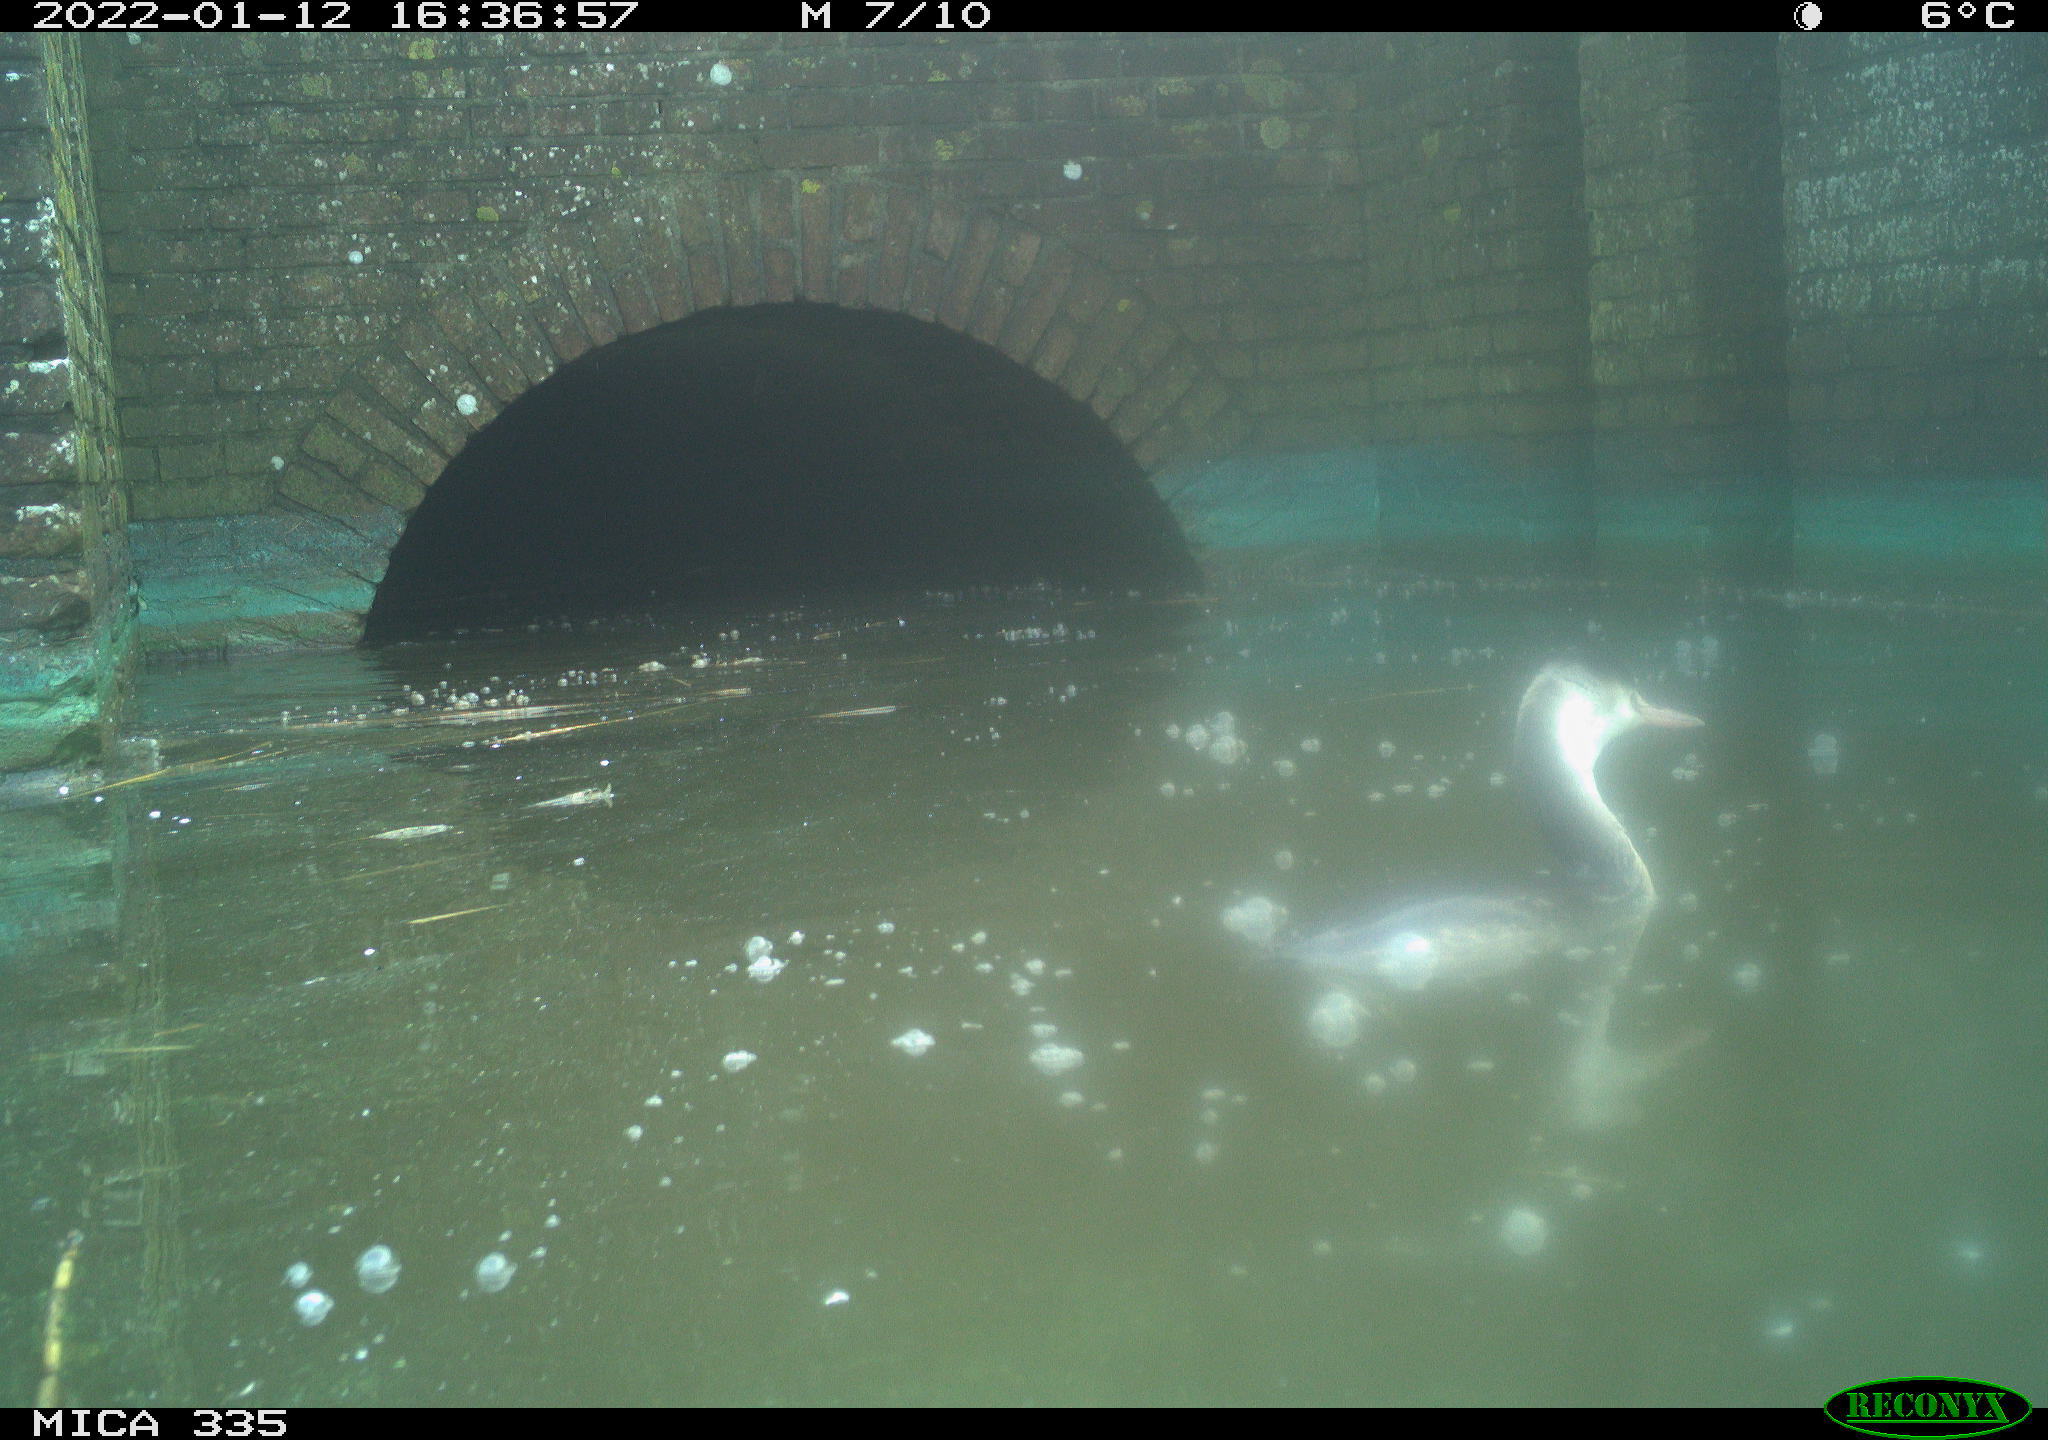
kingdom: Animalia
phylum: Chordata
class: Aves
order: Gruiformes
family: Rallidae
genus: Fulica
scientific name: Fulica atra
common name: Eurasian coot
